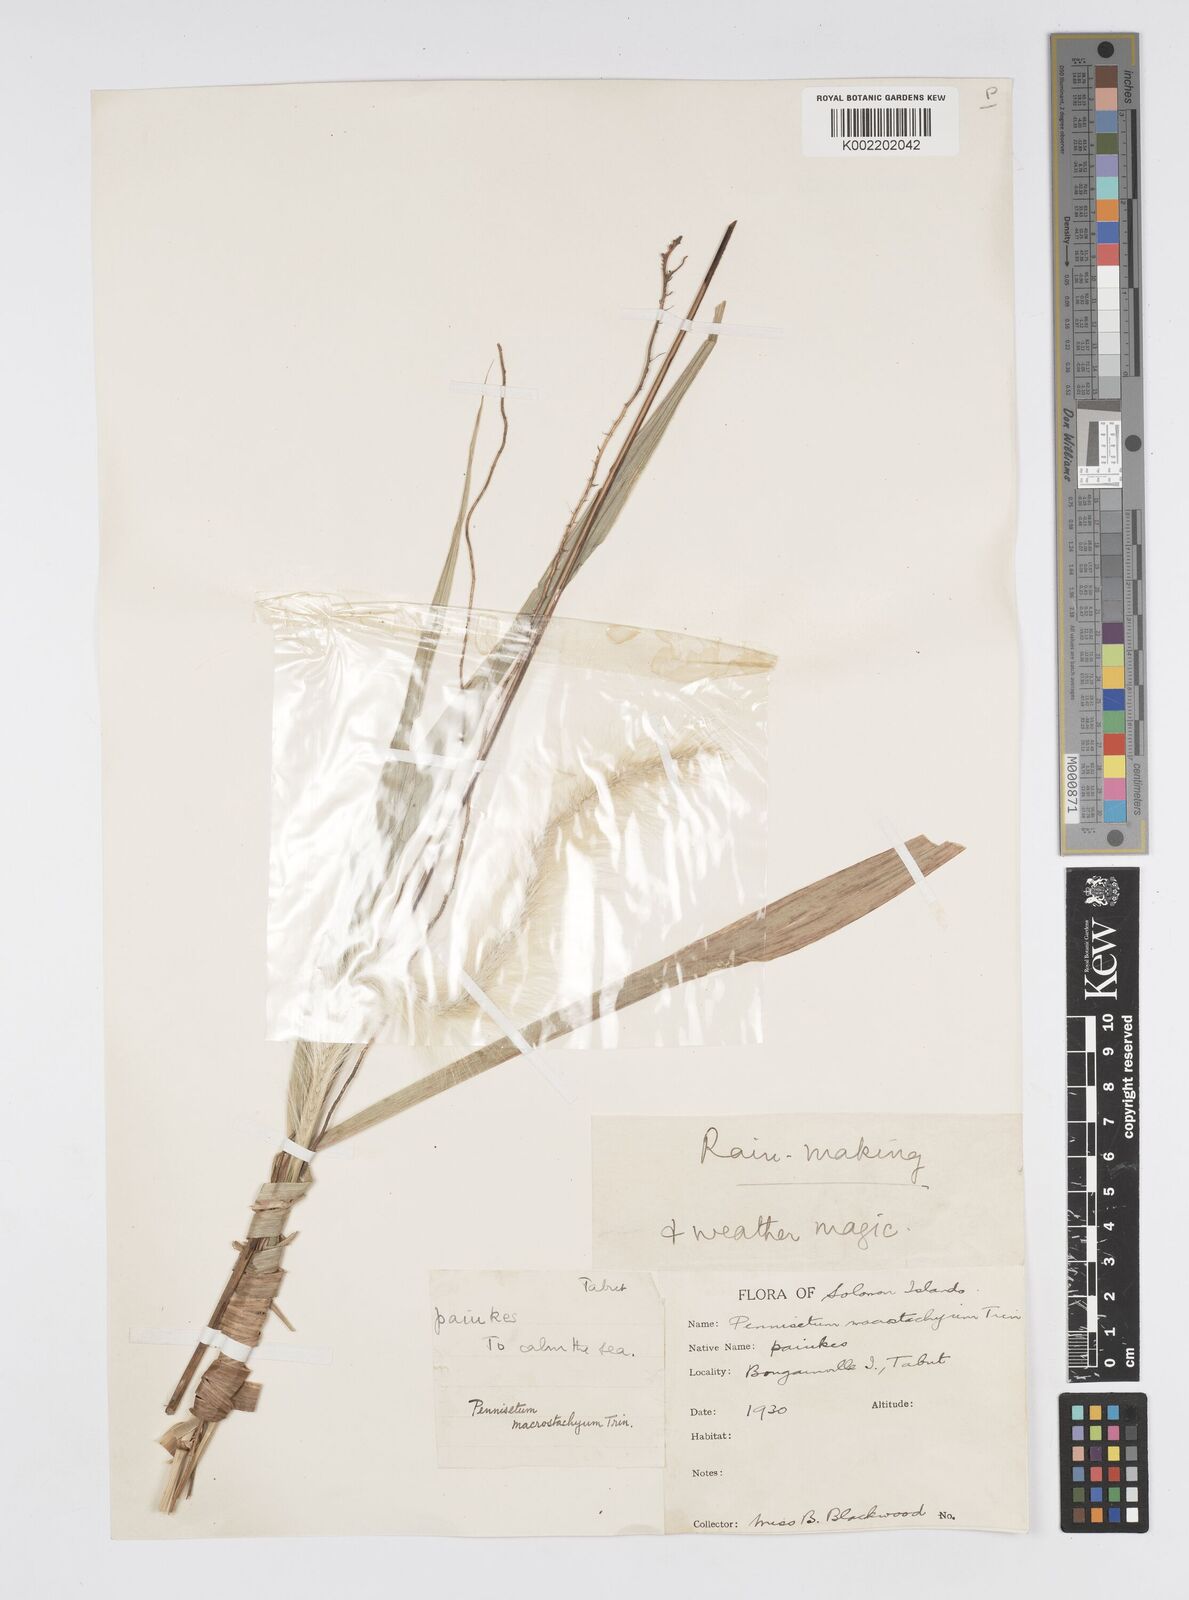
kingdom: Plantae
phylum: Tracheophyta
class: Liliopsida
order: Poales
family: Poaceae
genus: Cenchrus
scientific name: Cenchrus purpureus
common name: Elephant grass
